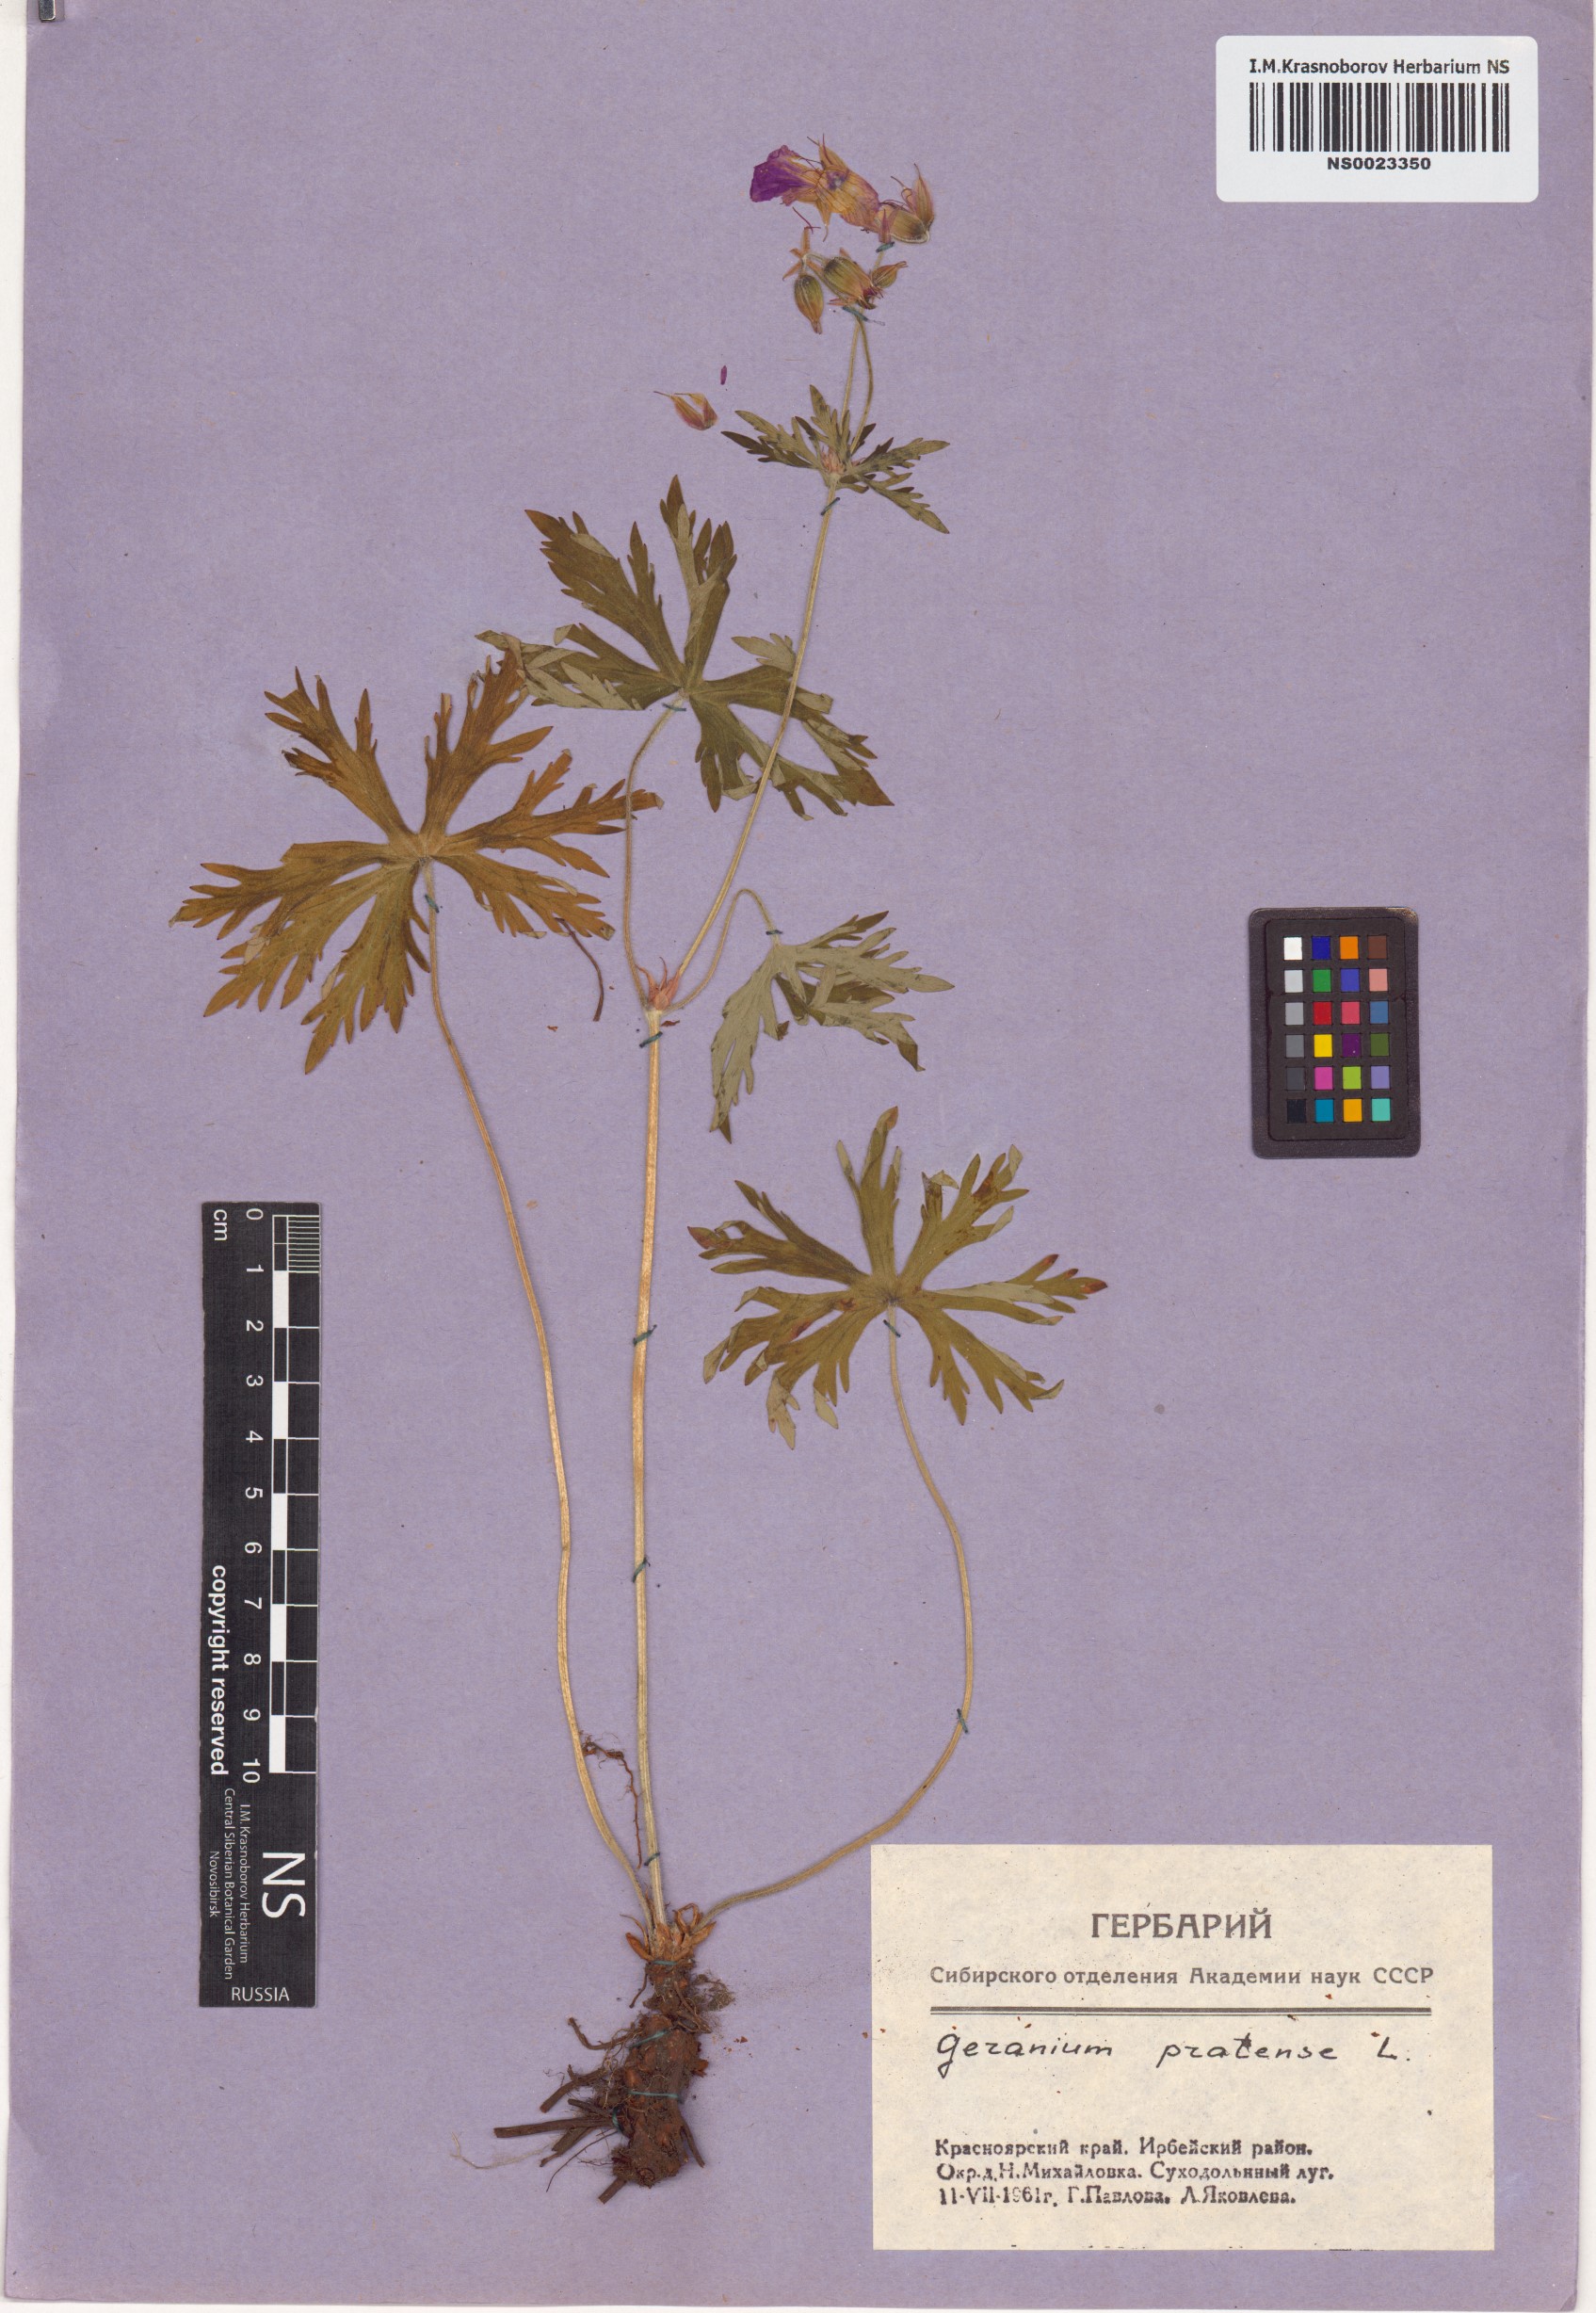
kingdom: Plantae
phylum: Tracheophyta
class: Magnoliopsida
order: Geraniales
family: Geraniaceae
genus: Geranium
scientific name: Geranium pratense
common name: Meadow crane's-bill
